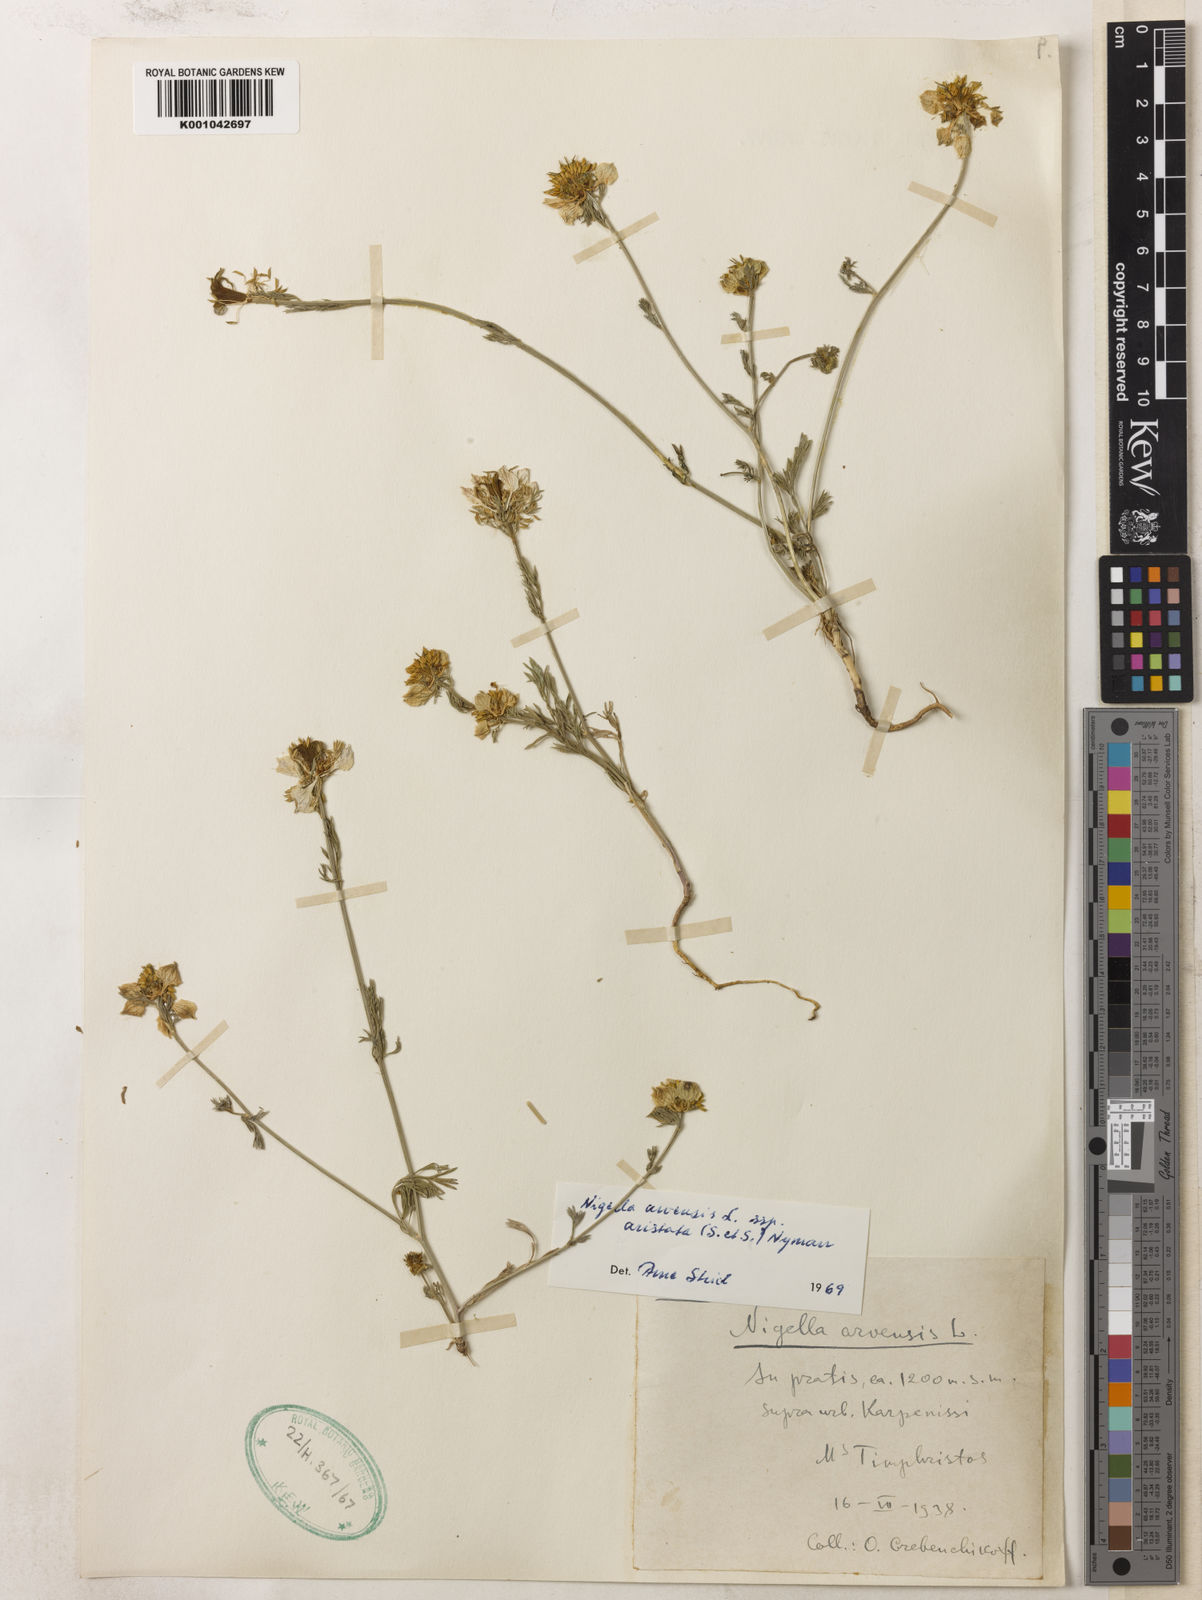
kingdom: Plantae
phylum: Tracheophyta
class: Magnoliopsida
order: Ranunculales
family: Ranunculaceae
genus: Nigella
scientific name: Nigella arvensis
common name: Wild fennel-flower
